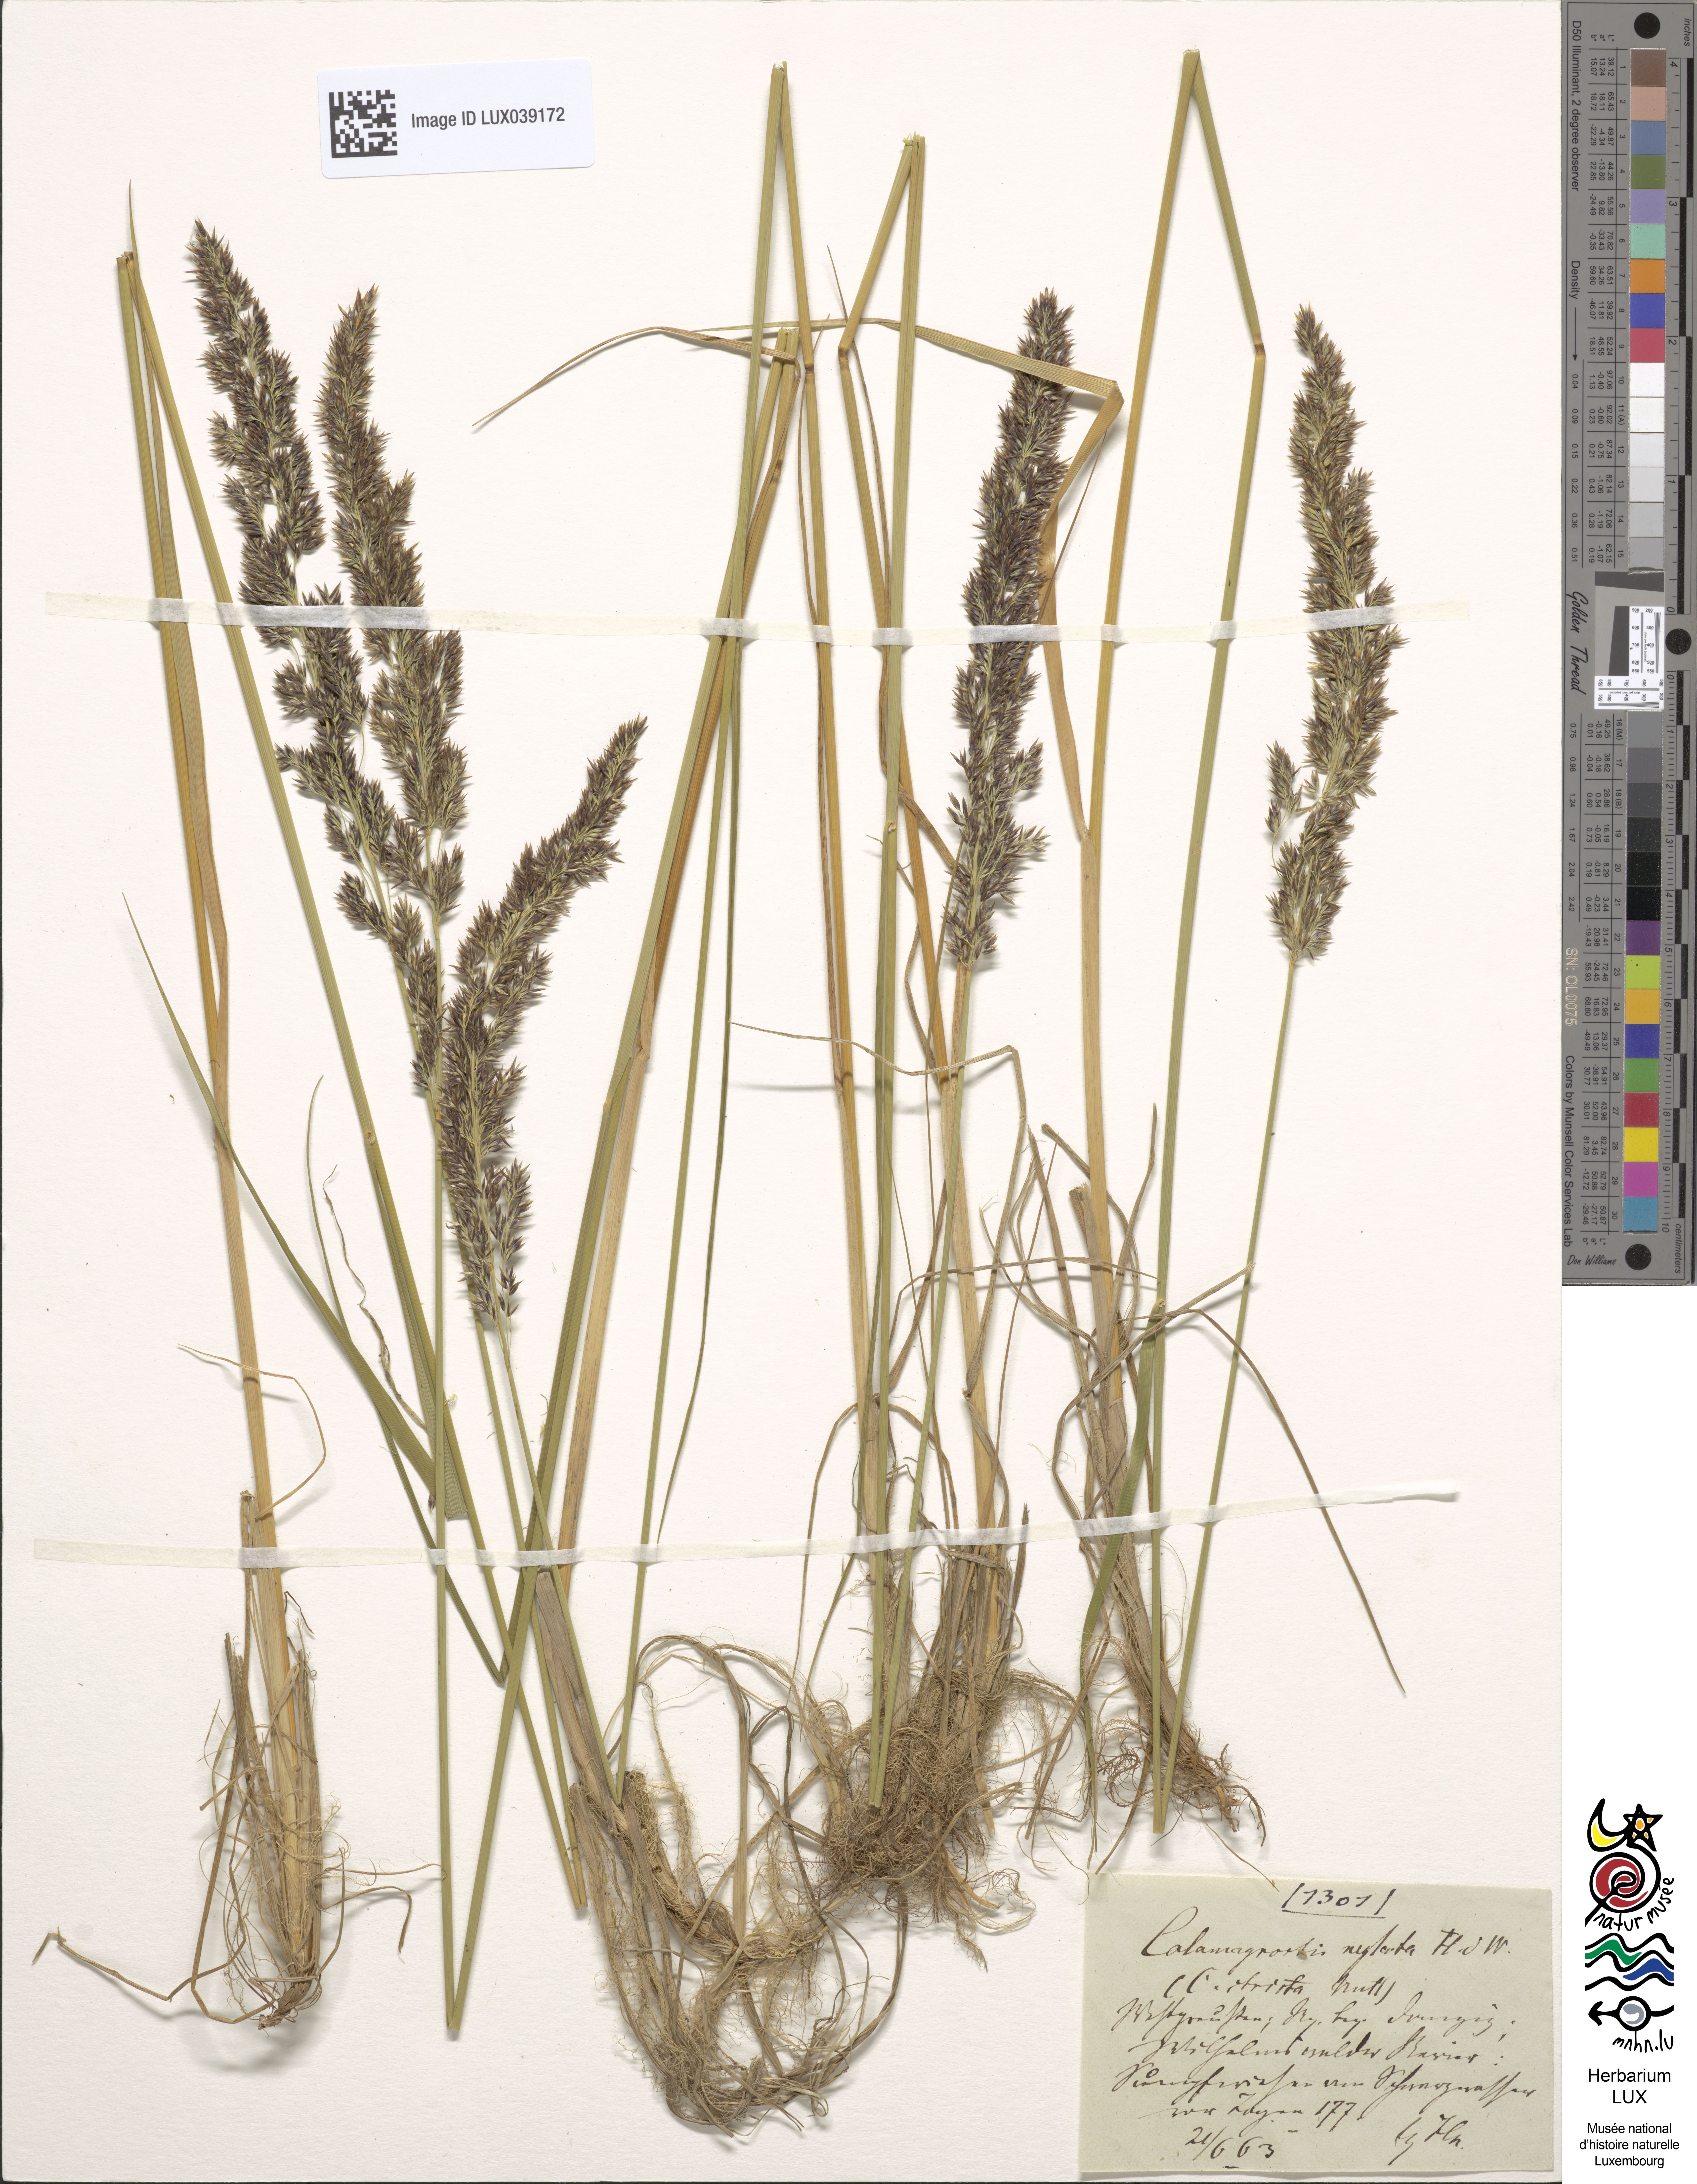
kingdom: Plantae
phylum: Tracheophyta
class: Liliopsida
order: Poales
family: Poaceae
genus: Calamagrostis
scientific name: Calamagrostis stricta
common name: Narrow small-reed
